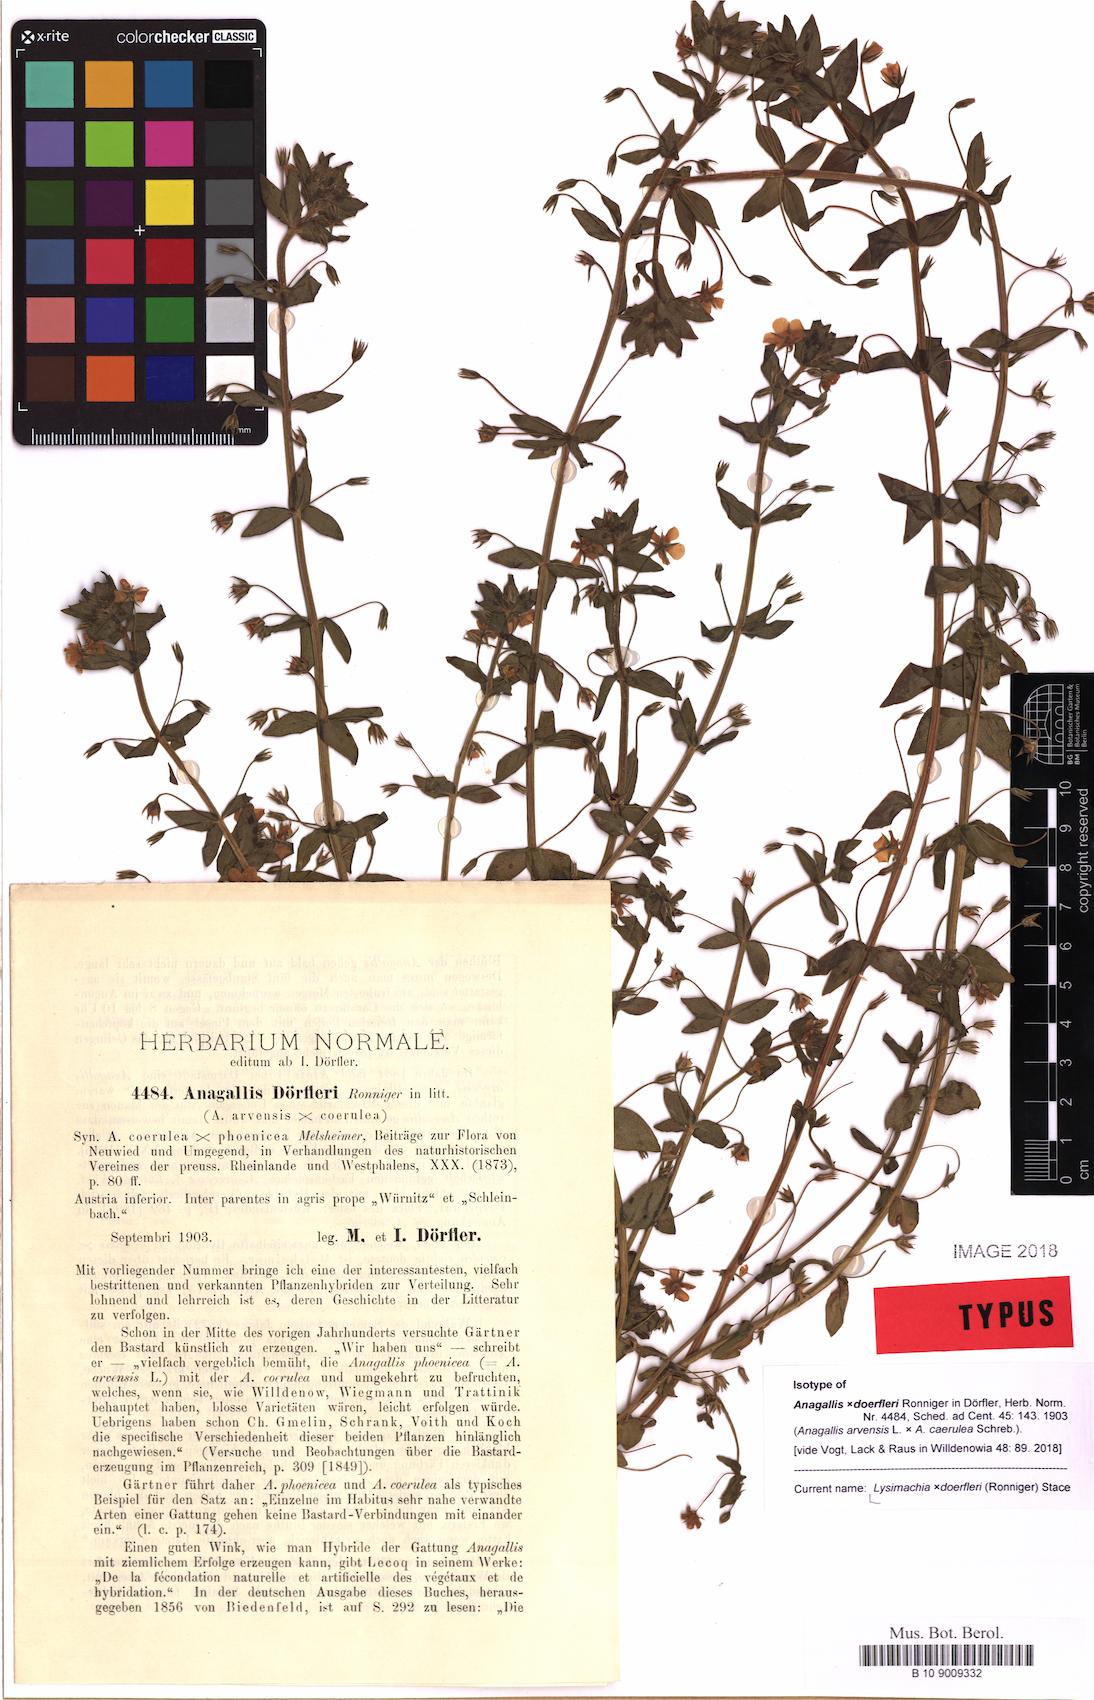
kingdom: Plantae
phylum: Tracheophyta
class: Magnoliopsida
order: Ericales
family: Primulaceae
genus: Lysimachia
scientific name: Lysimachia doerfleri
